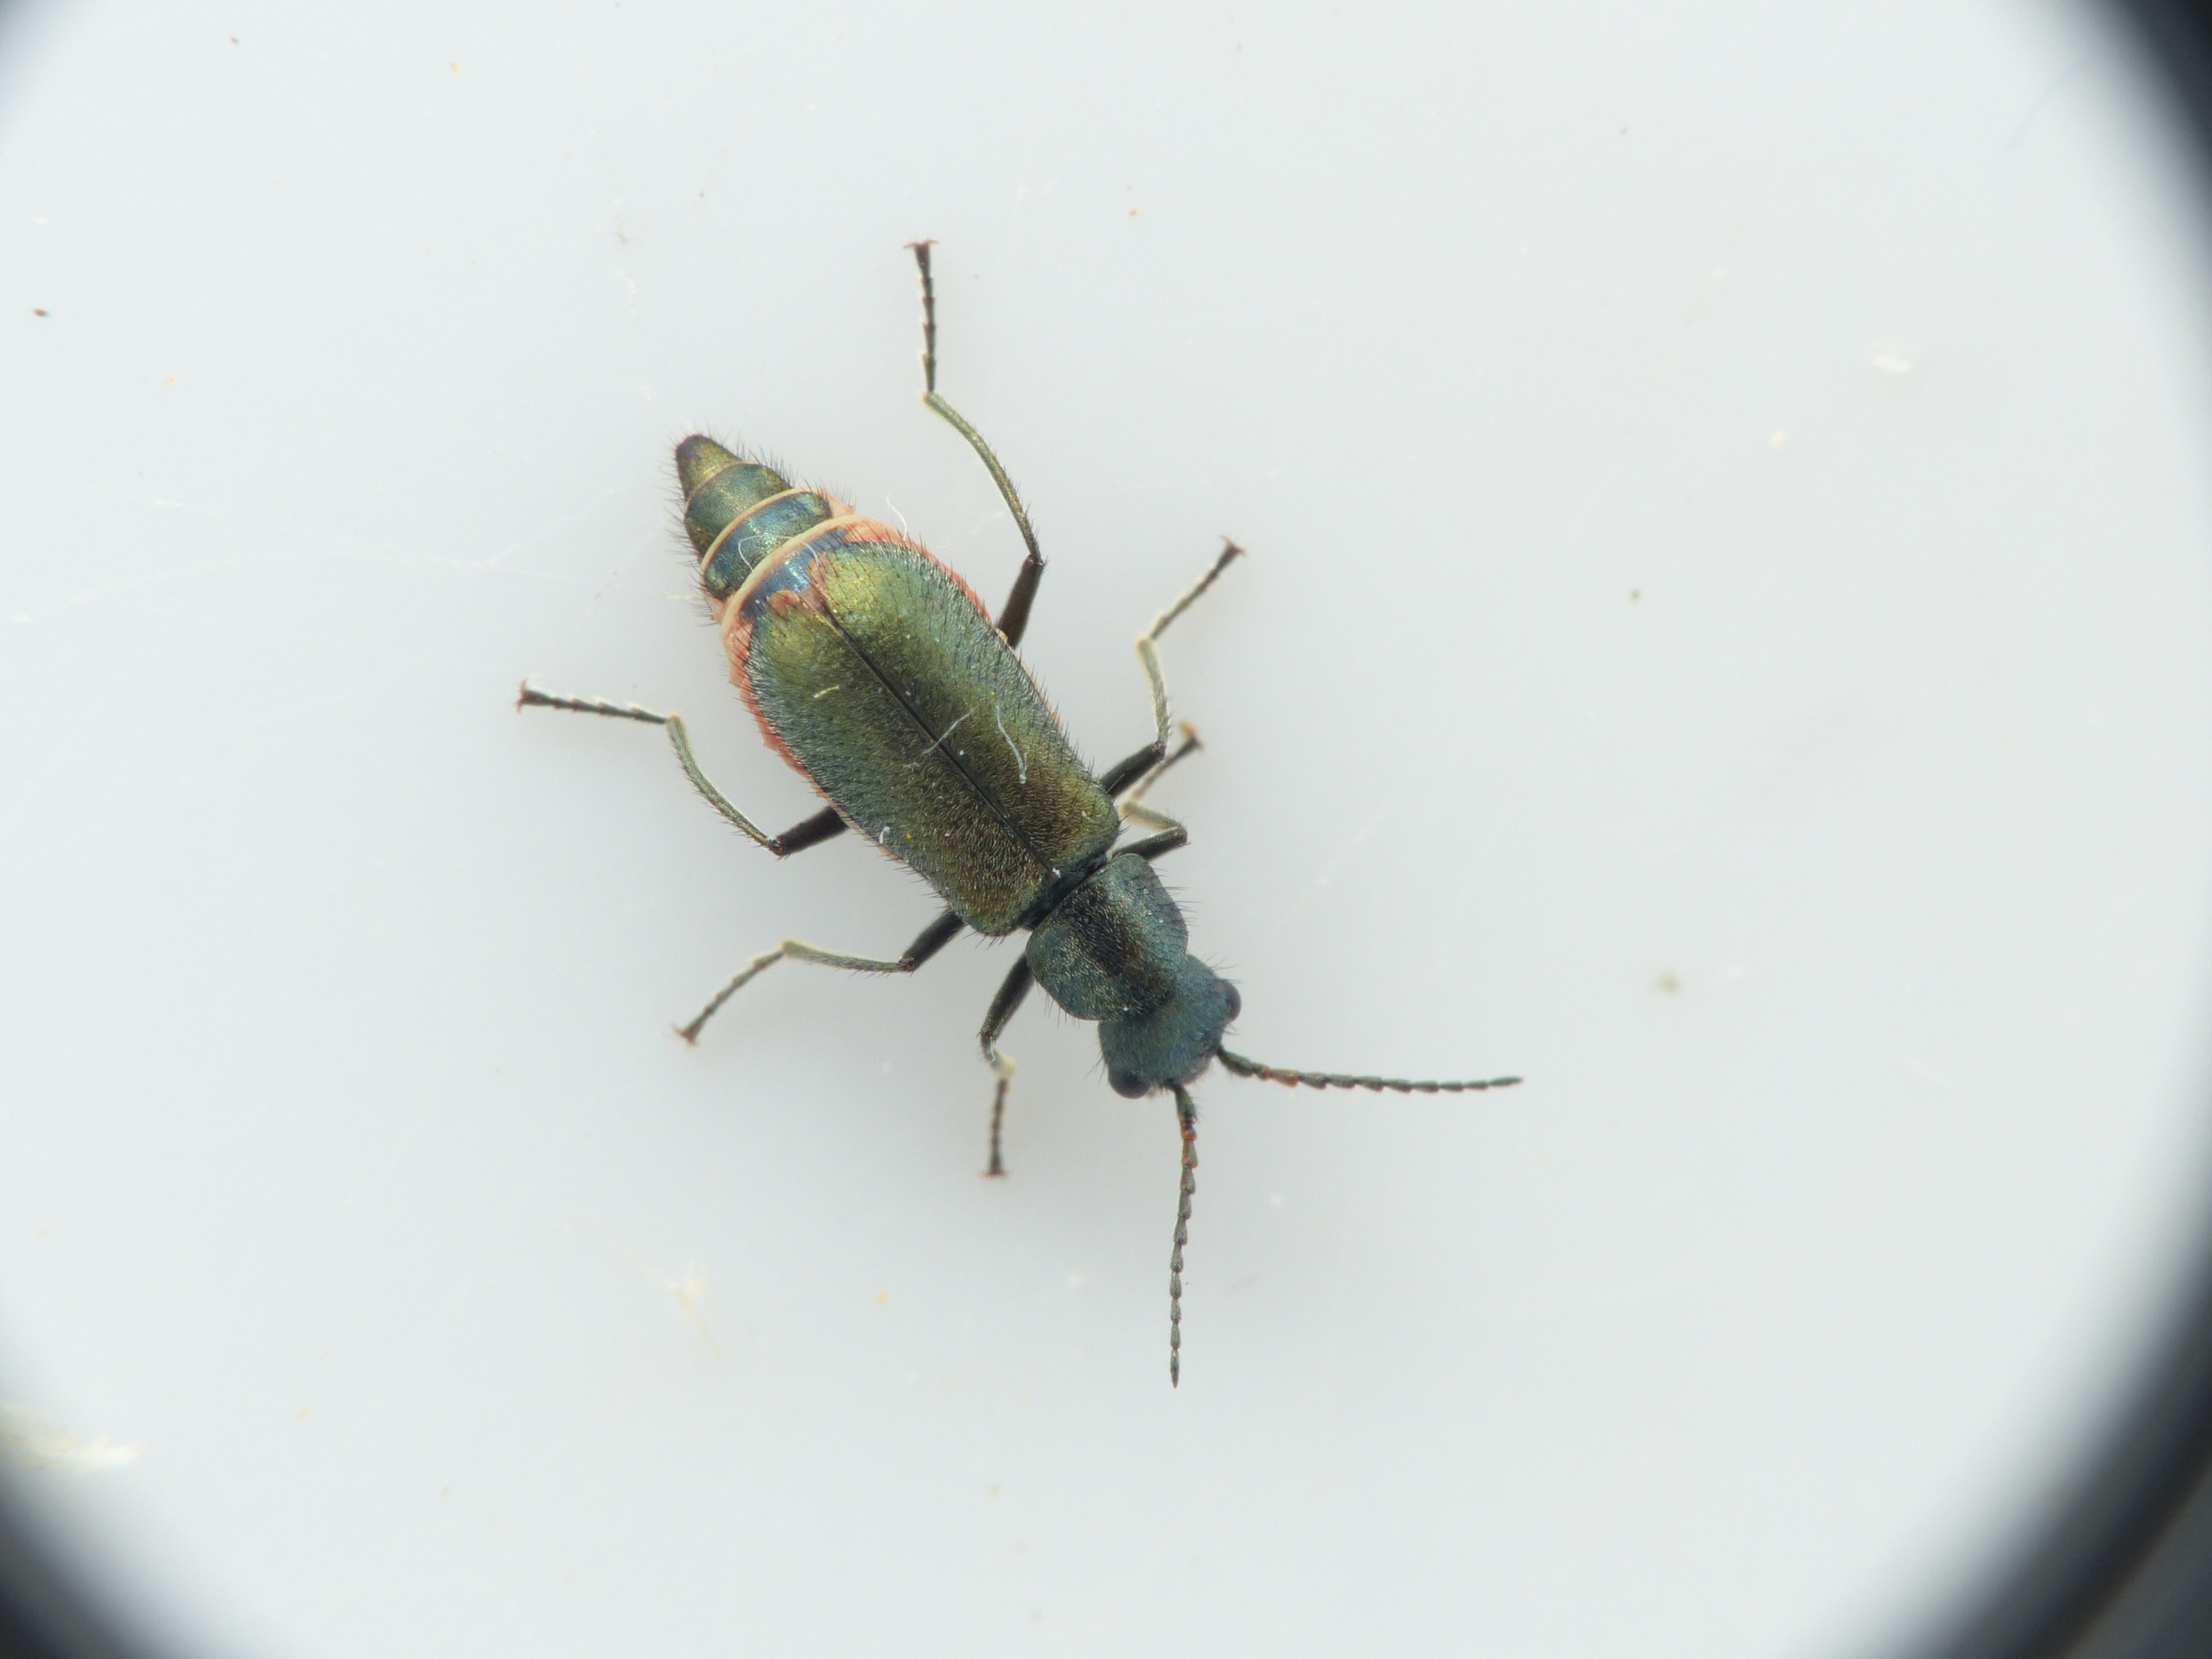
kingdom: Animalia
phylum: Arthropoda
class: Insecta
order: Coleoptera
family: Malachiidae
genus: Cordylepherus
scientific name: Cordylepherus viridis
